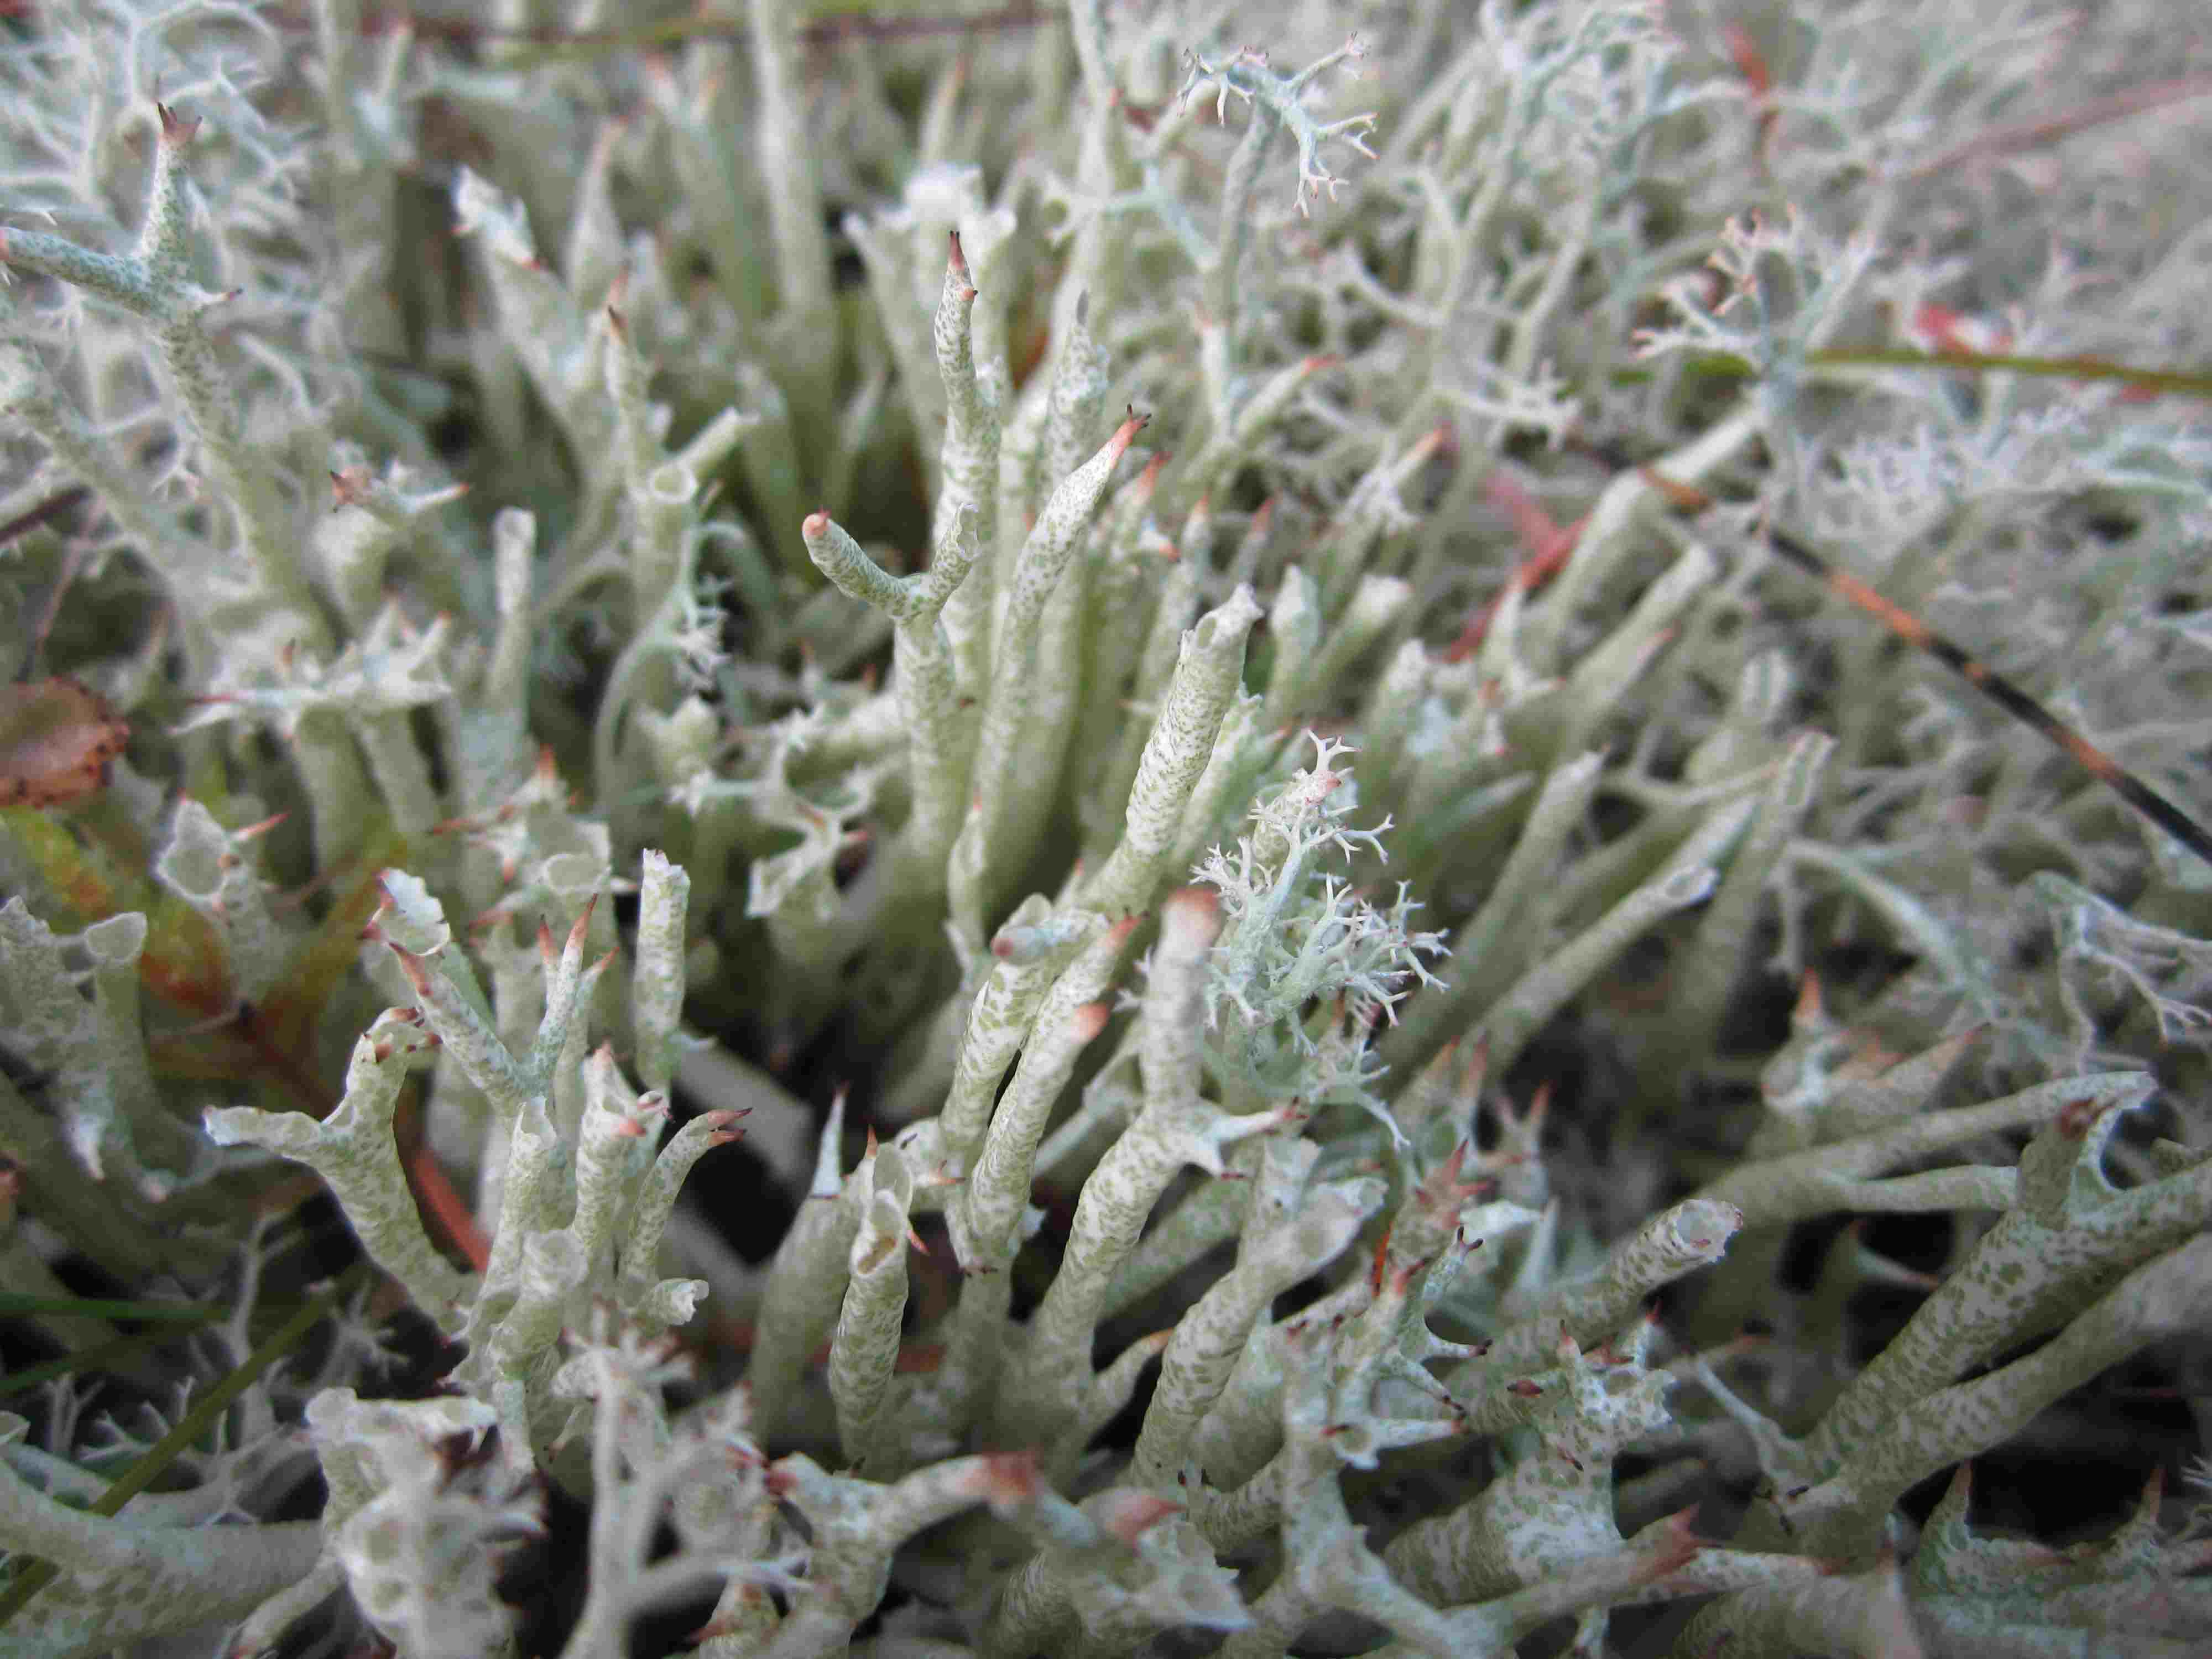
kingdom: Fungi
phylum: Ascomycota
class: Lecanoromycetes
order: Lecanorales
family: Cladoniaceae
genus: Cladonia
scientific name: Cladonia uncialis
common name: Thorn lichen
